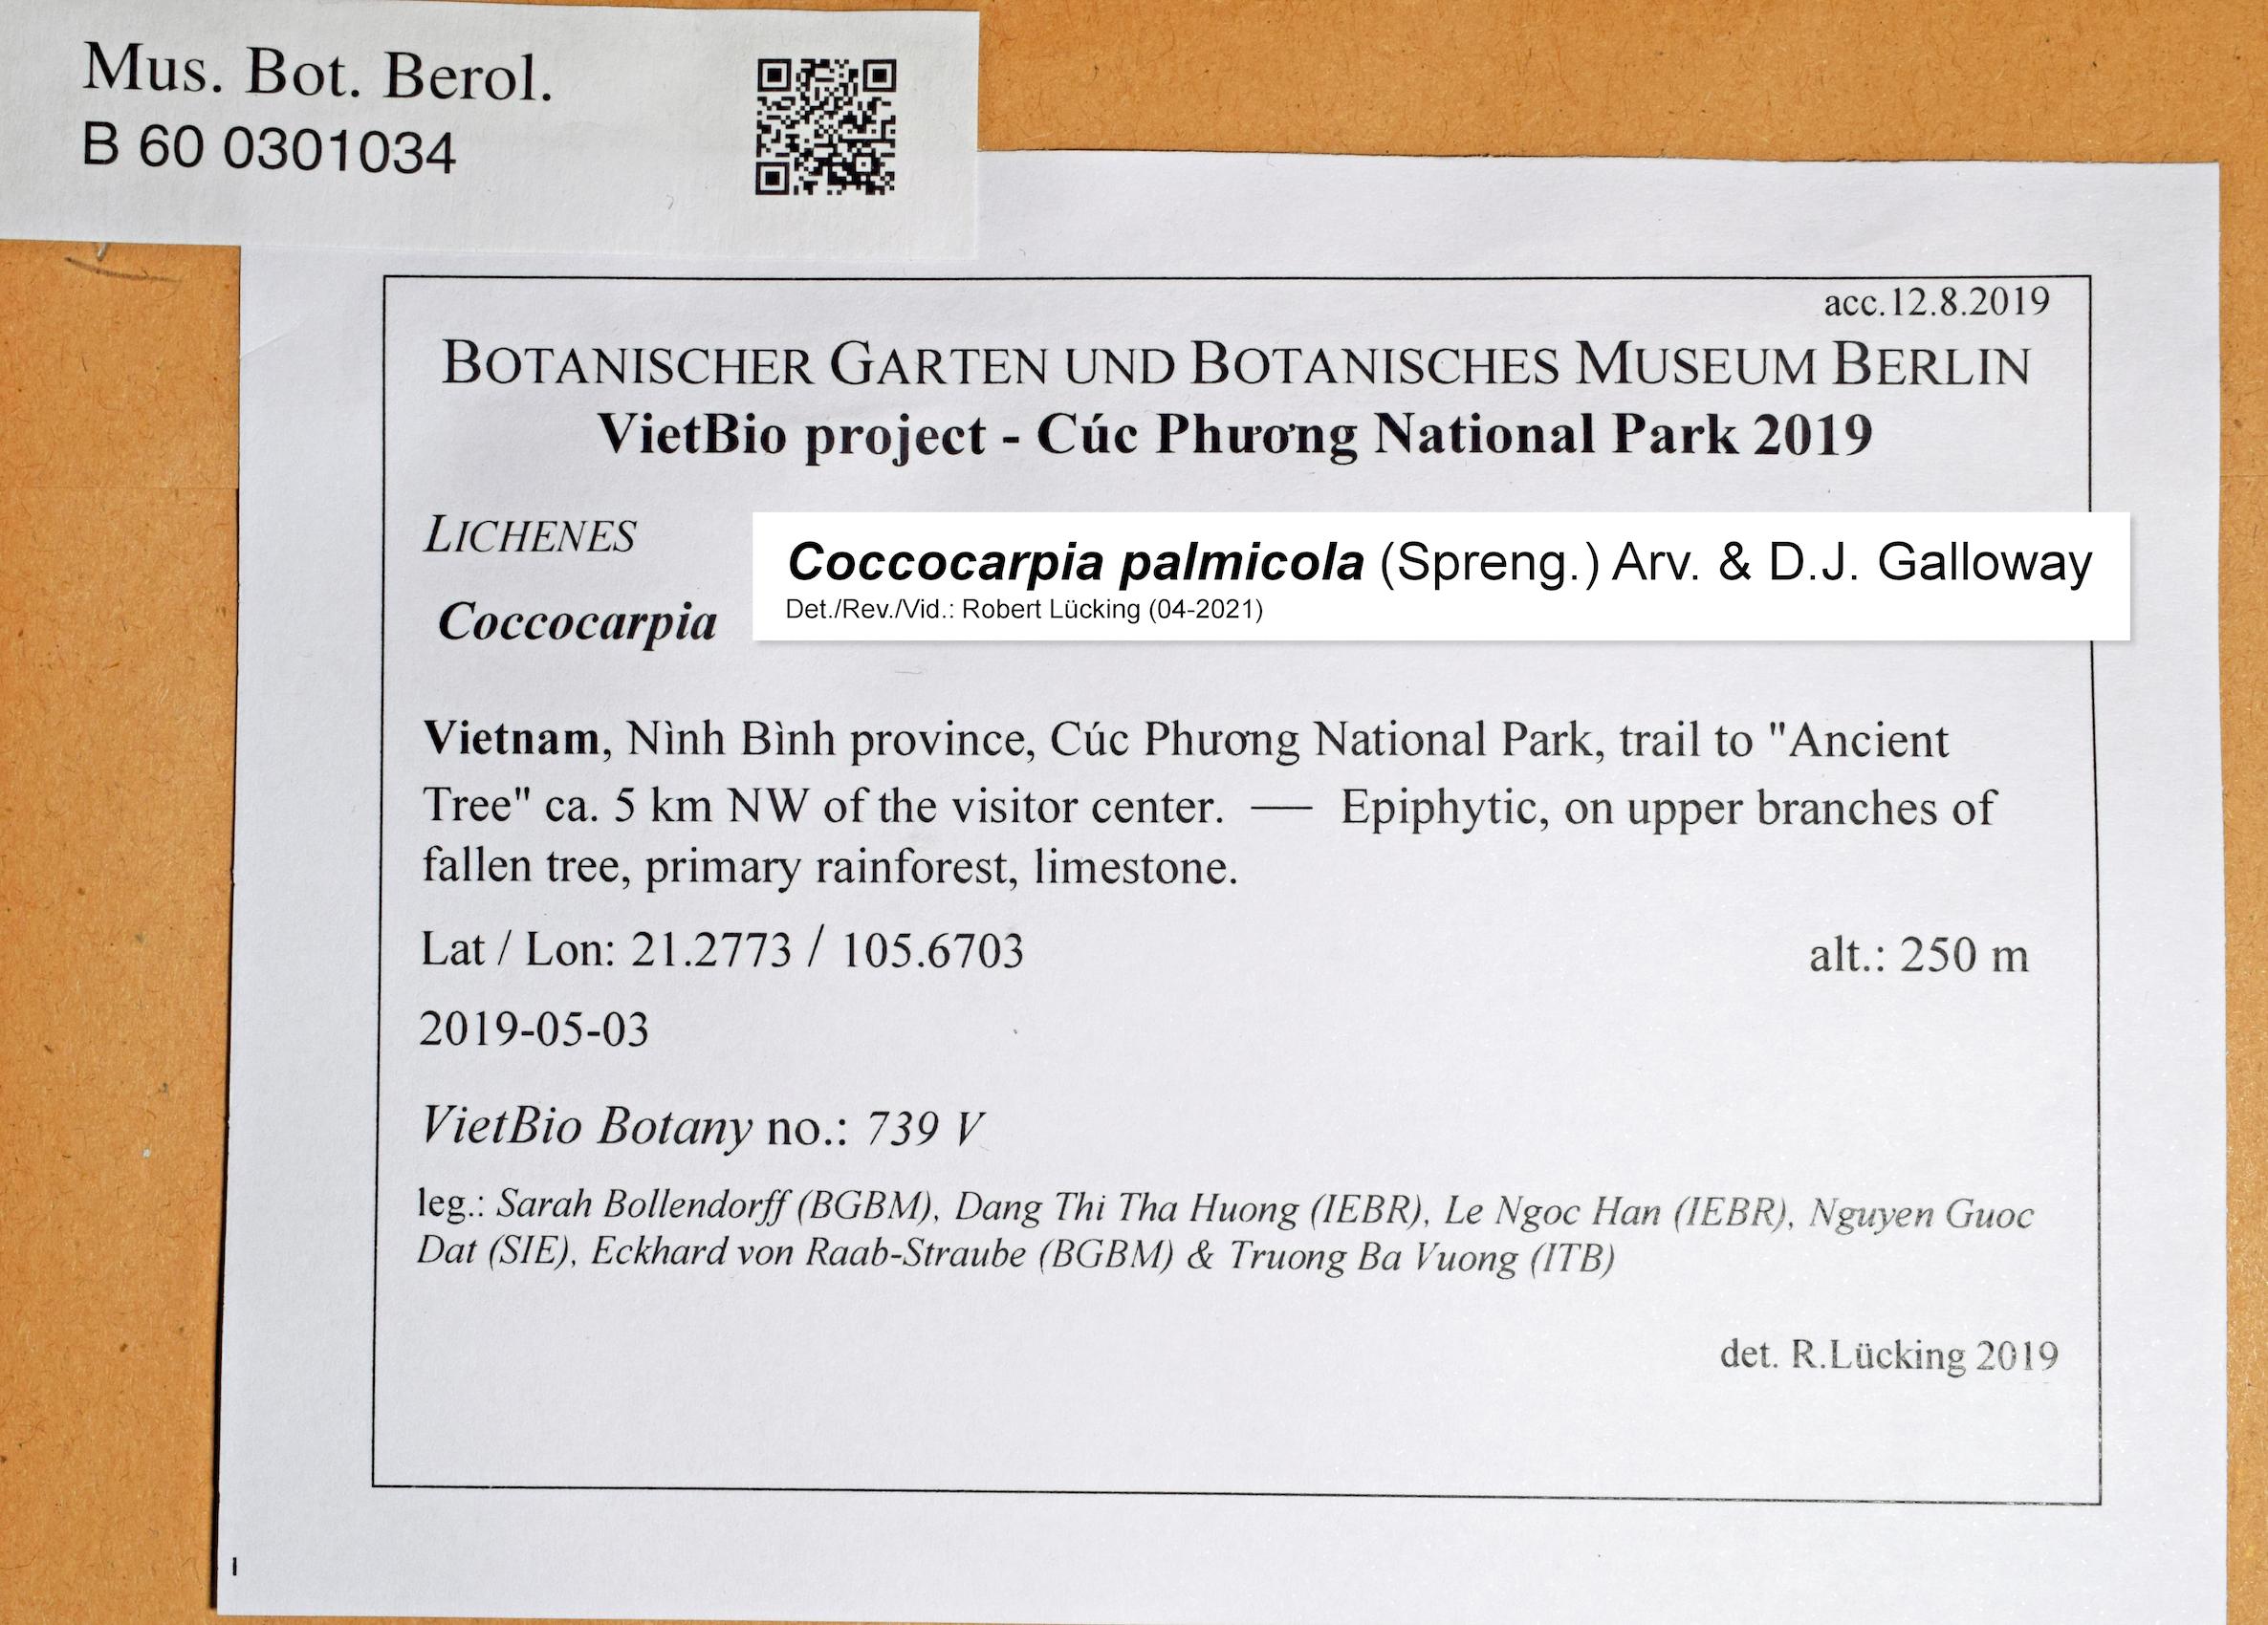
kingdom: Fungi
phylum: Ascomycota
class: Lecanoromycetes
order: Peltigerales
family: Coccocarpiaceae
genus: Coccocarpia
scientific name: Coccocarpia
